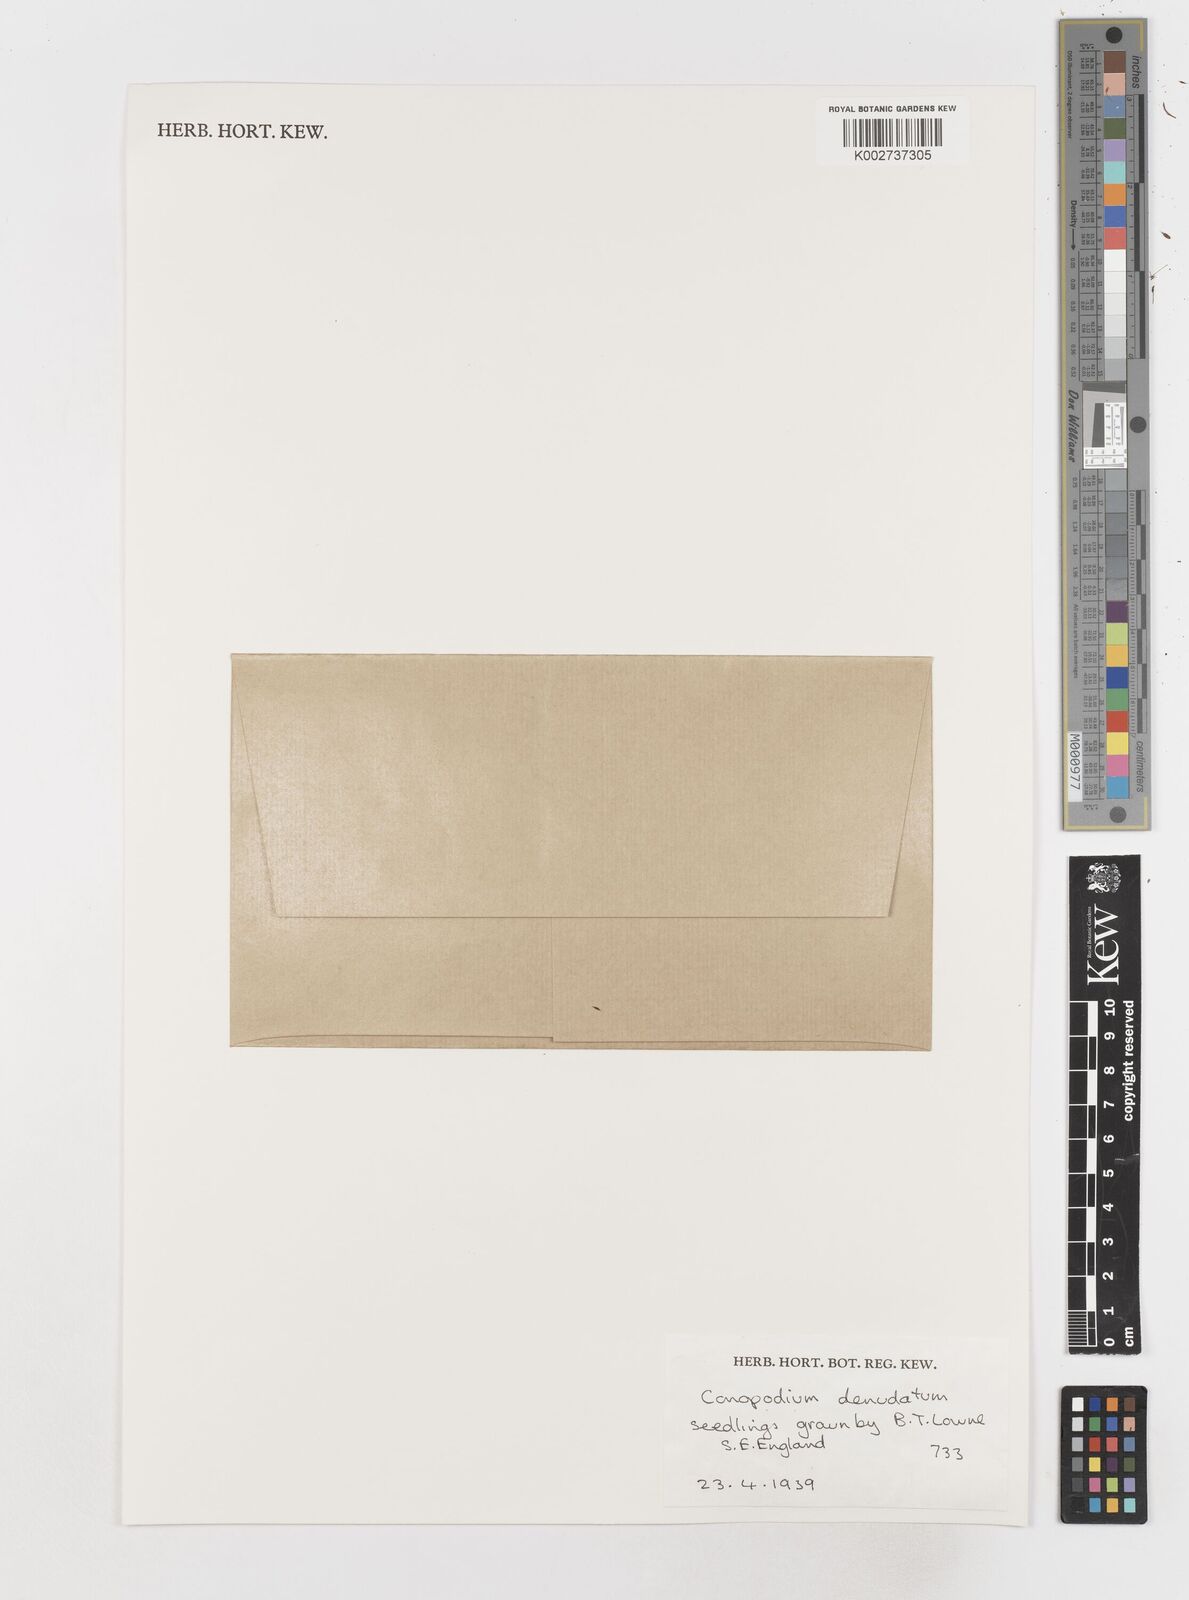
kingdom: Plantae
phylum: Tracheophyta
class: Magnoliopsida
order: Apiales
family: Apiaceae
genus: Conopodium
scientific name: Conopodium majus
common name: Pignut
